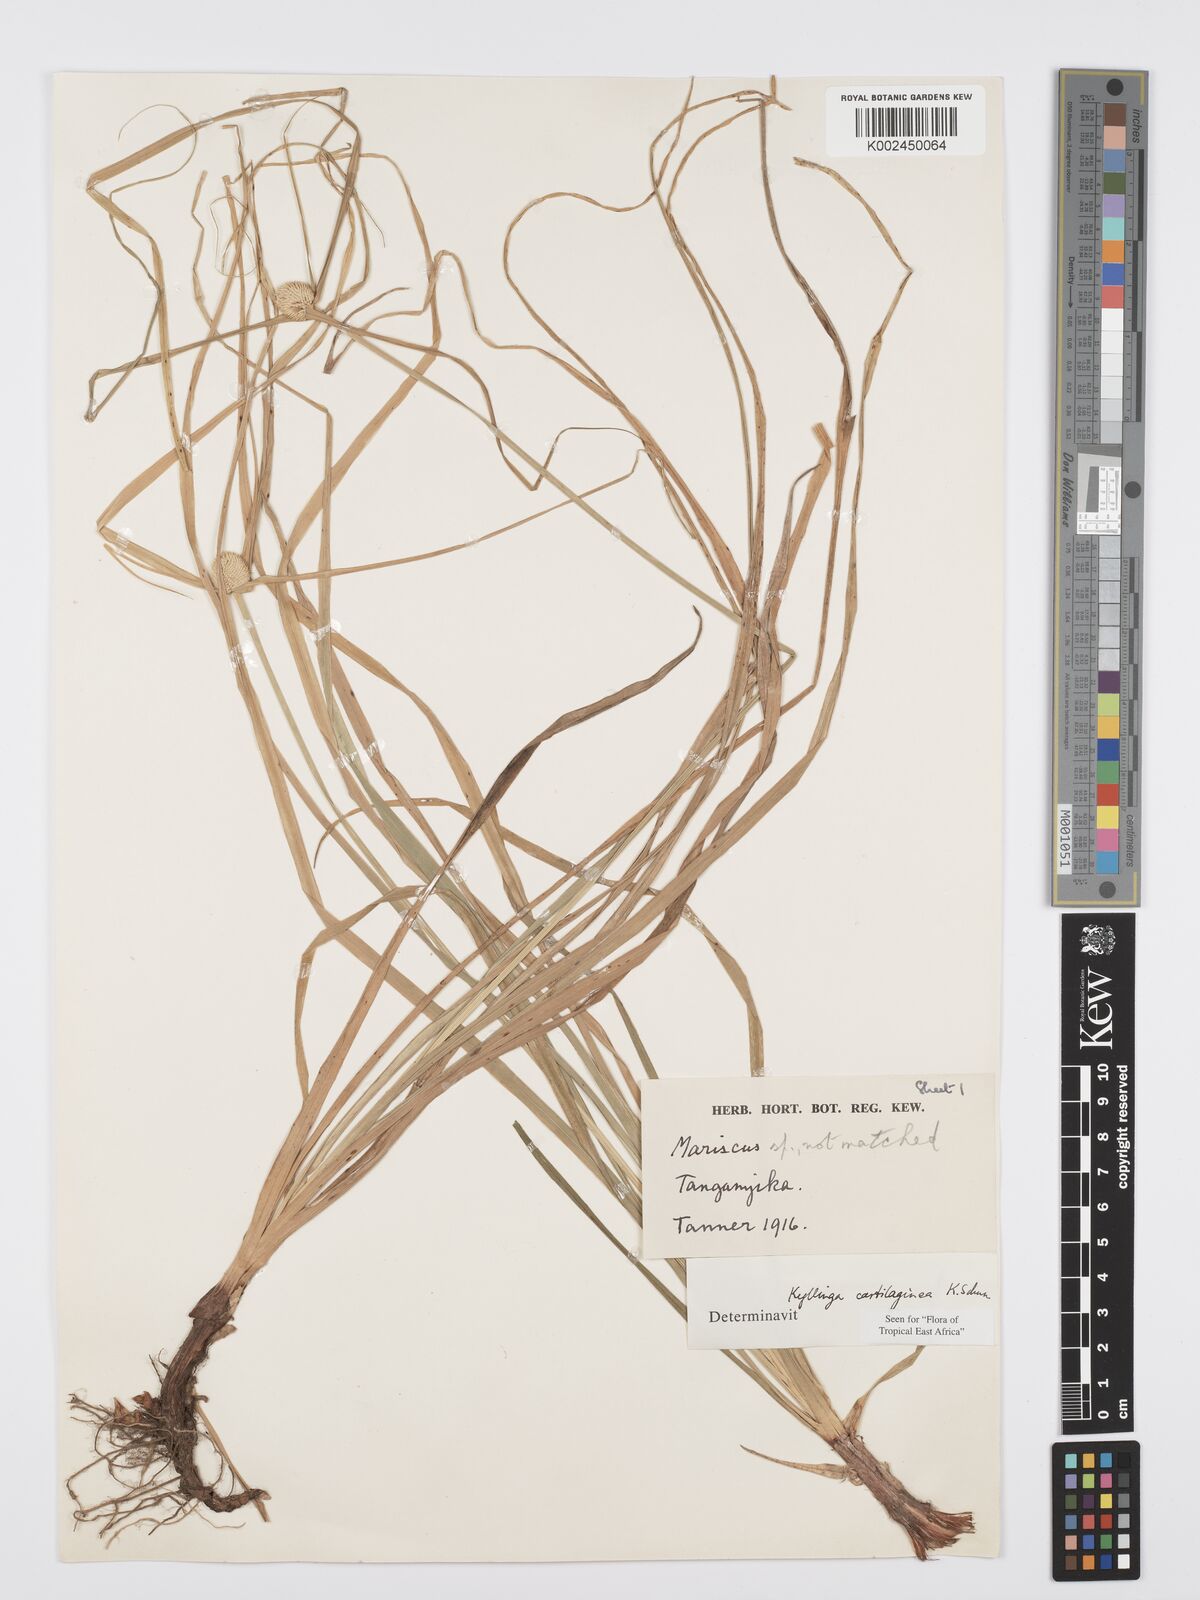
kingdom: Plantae
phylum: Tracheophyta
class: Liliopsida
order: Poales
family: Cyperaceae
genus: Cyperus
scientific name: Cyperus cartilagineus
